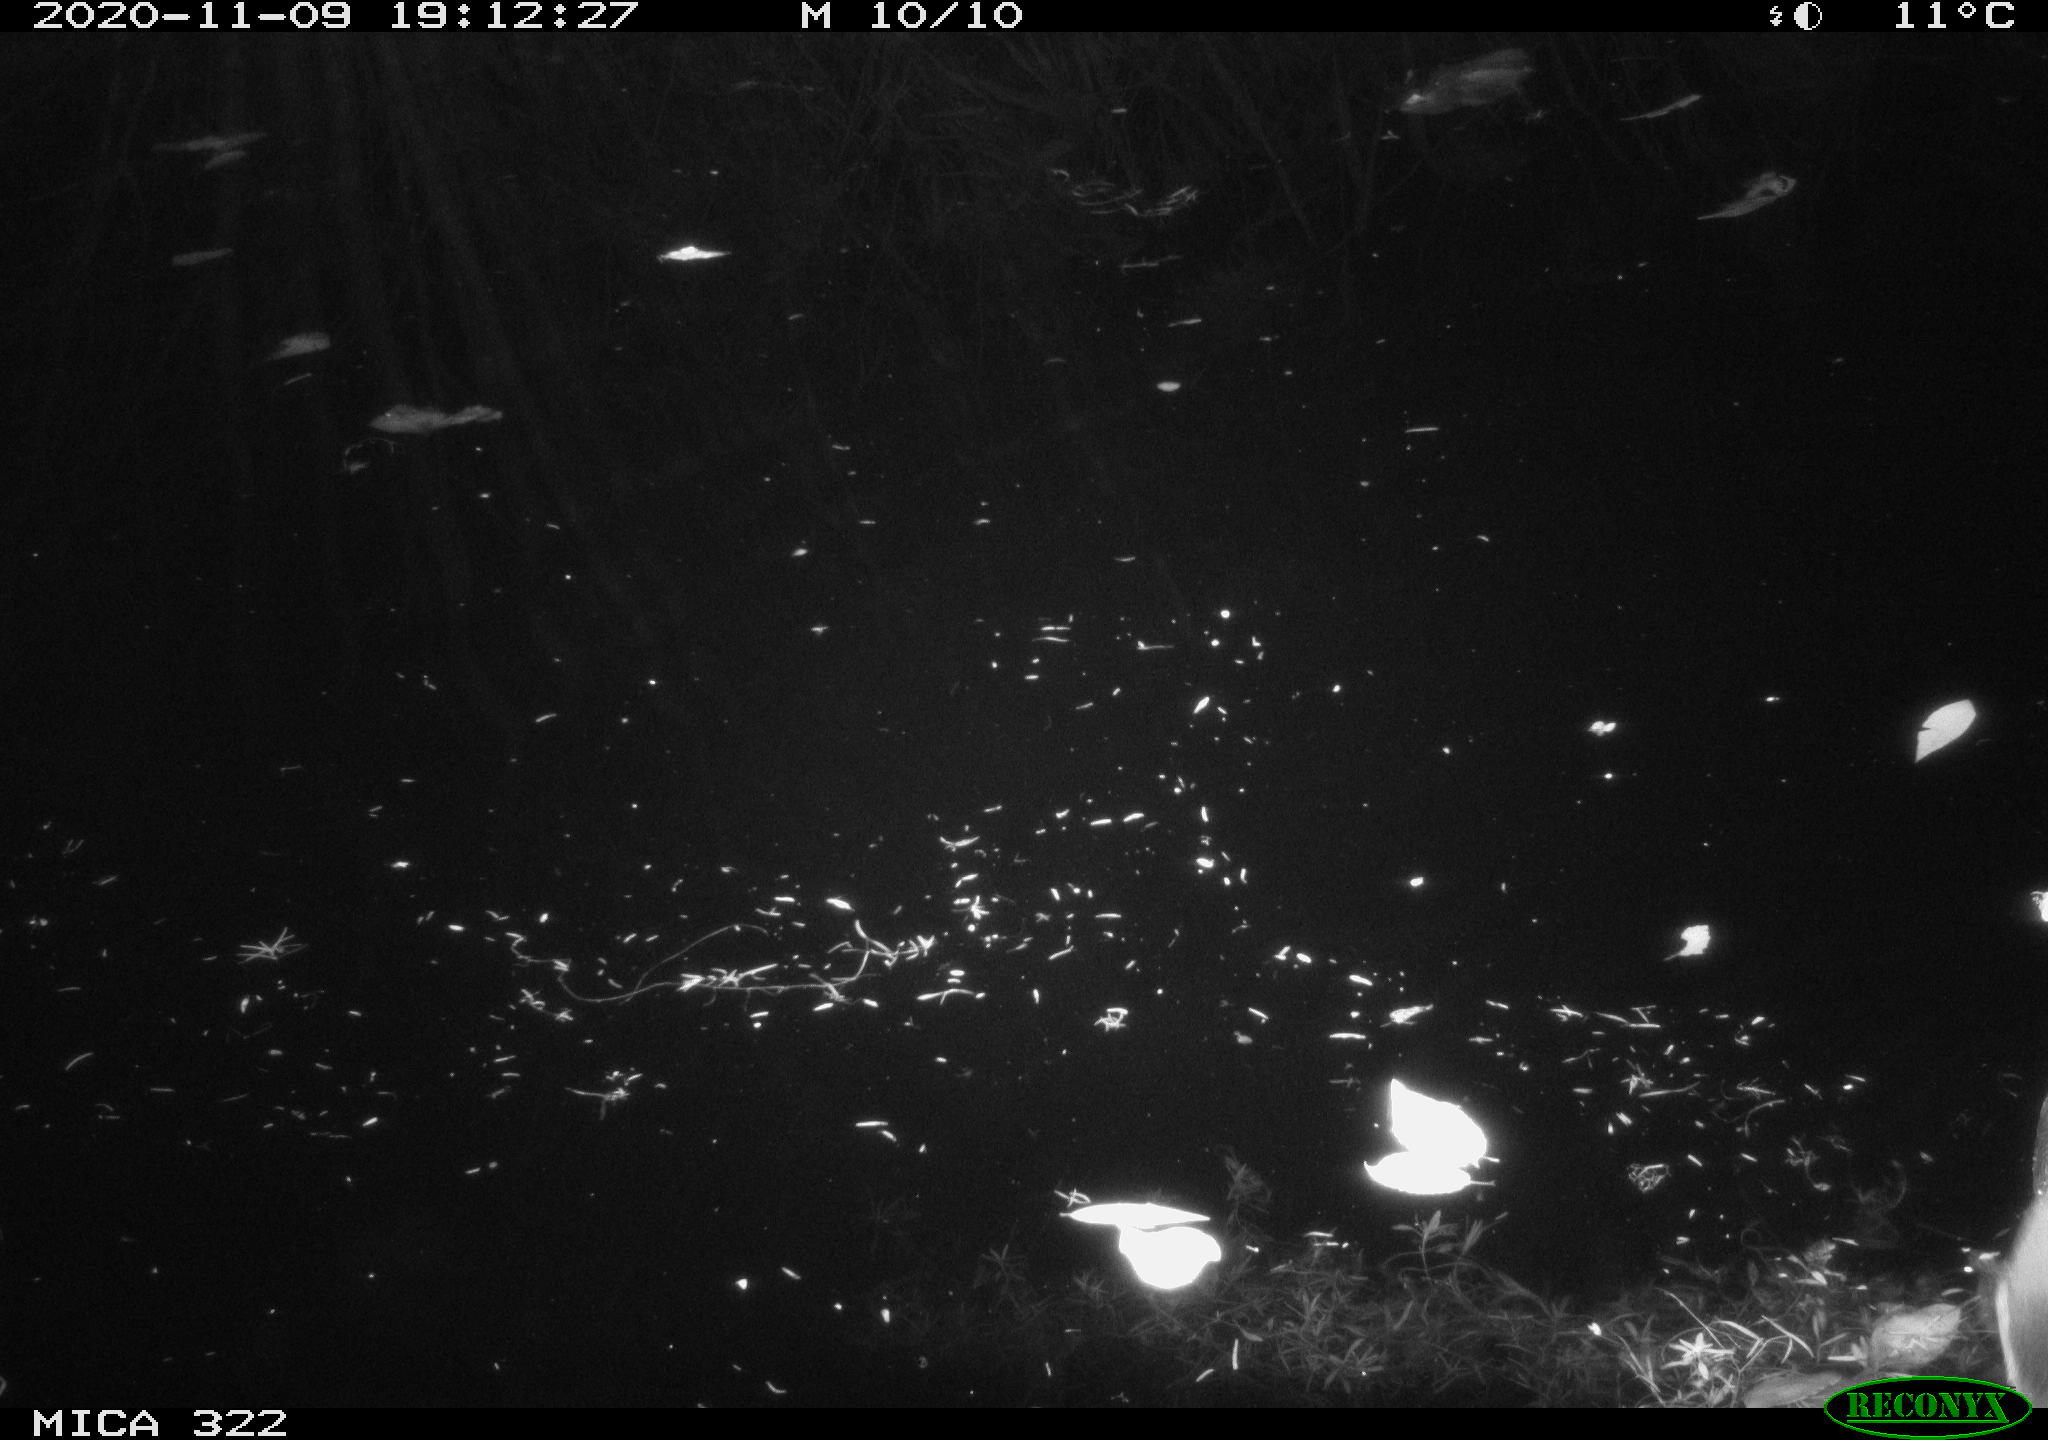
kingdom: Animalia
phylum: Chordata
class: Aves
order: Anseriformes
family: Anatidae
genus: Mareca
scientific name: Mareca strepera
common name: Gadwall
